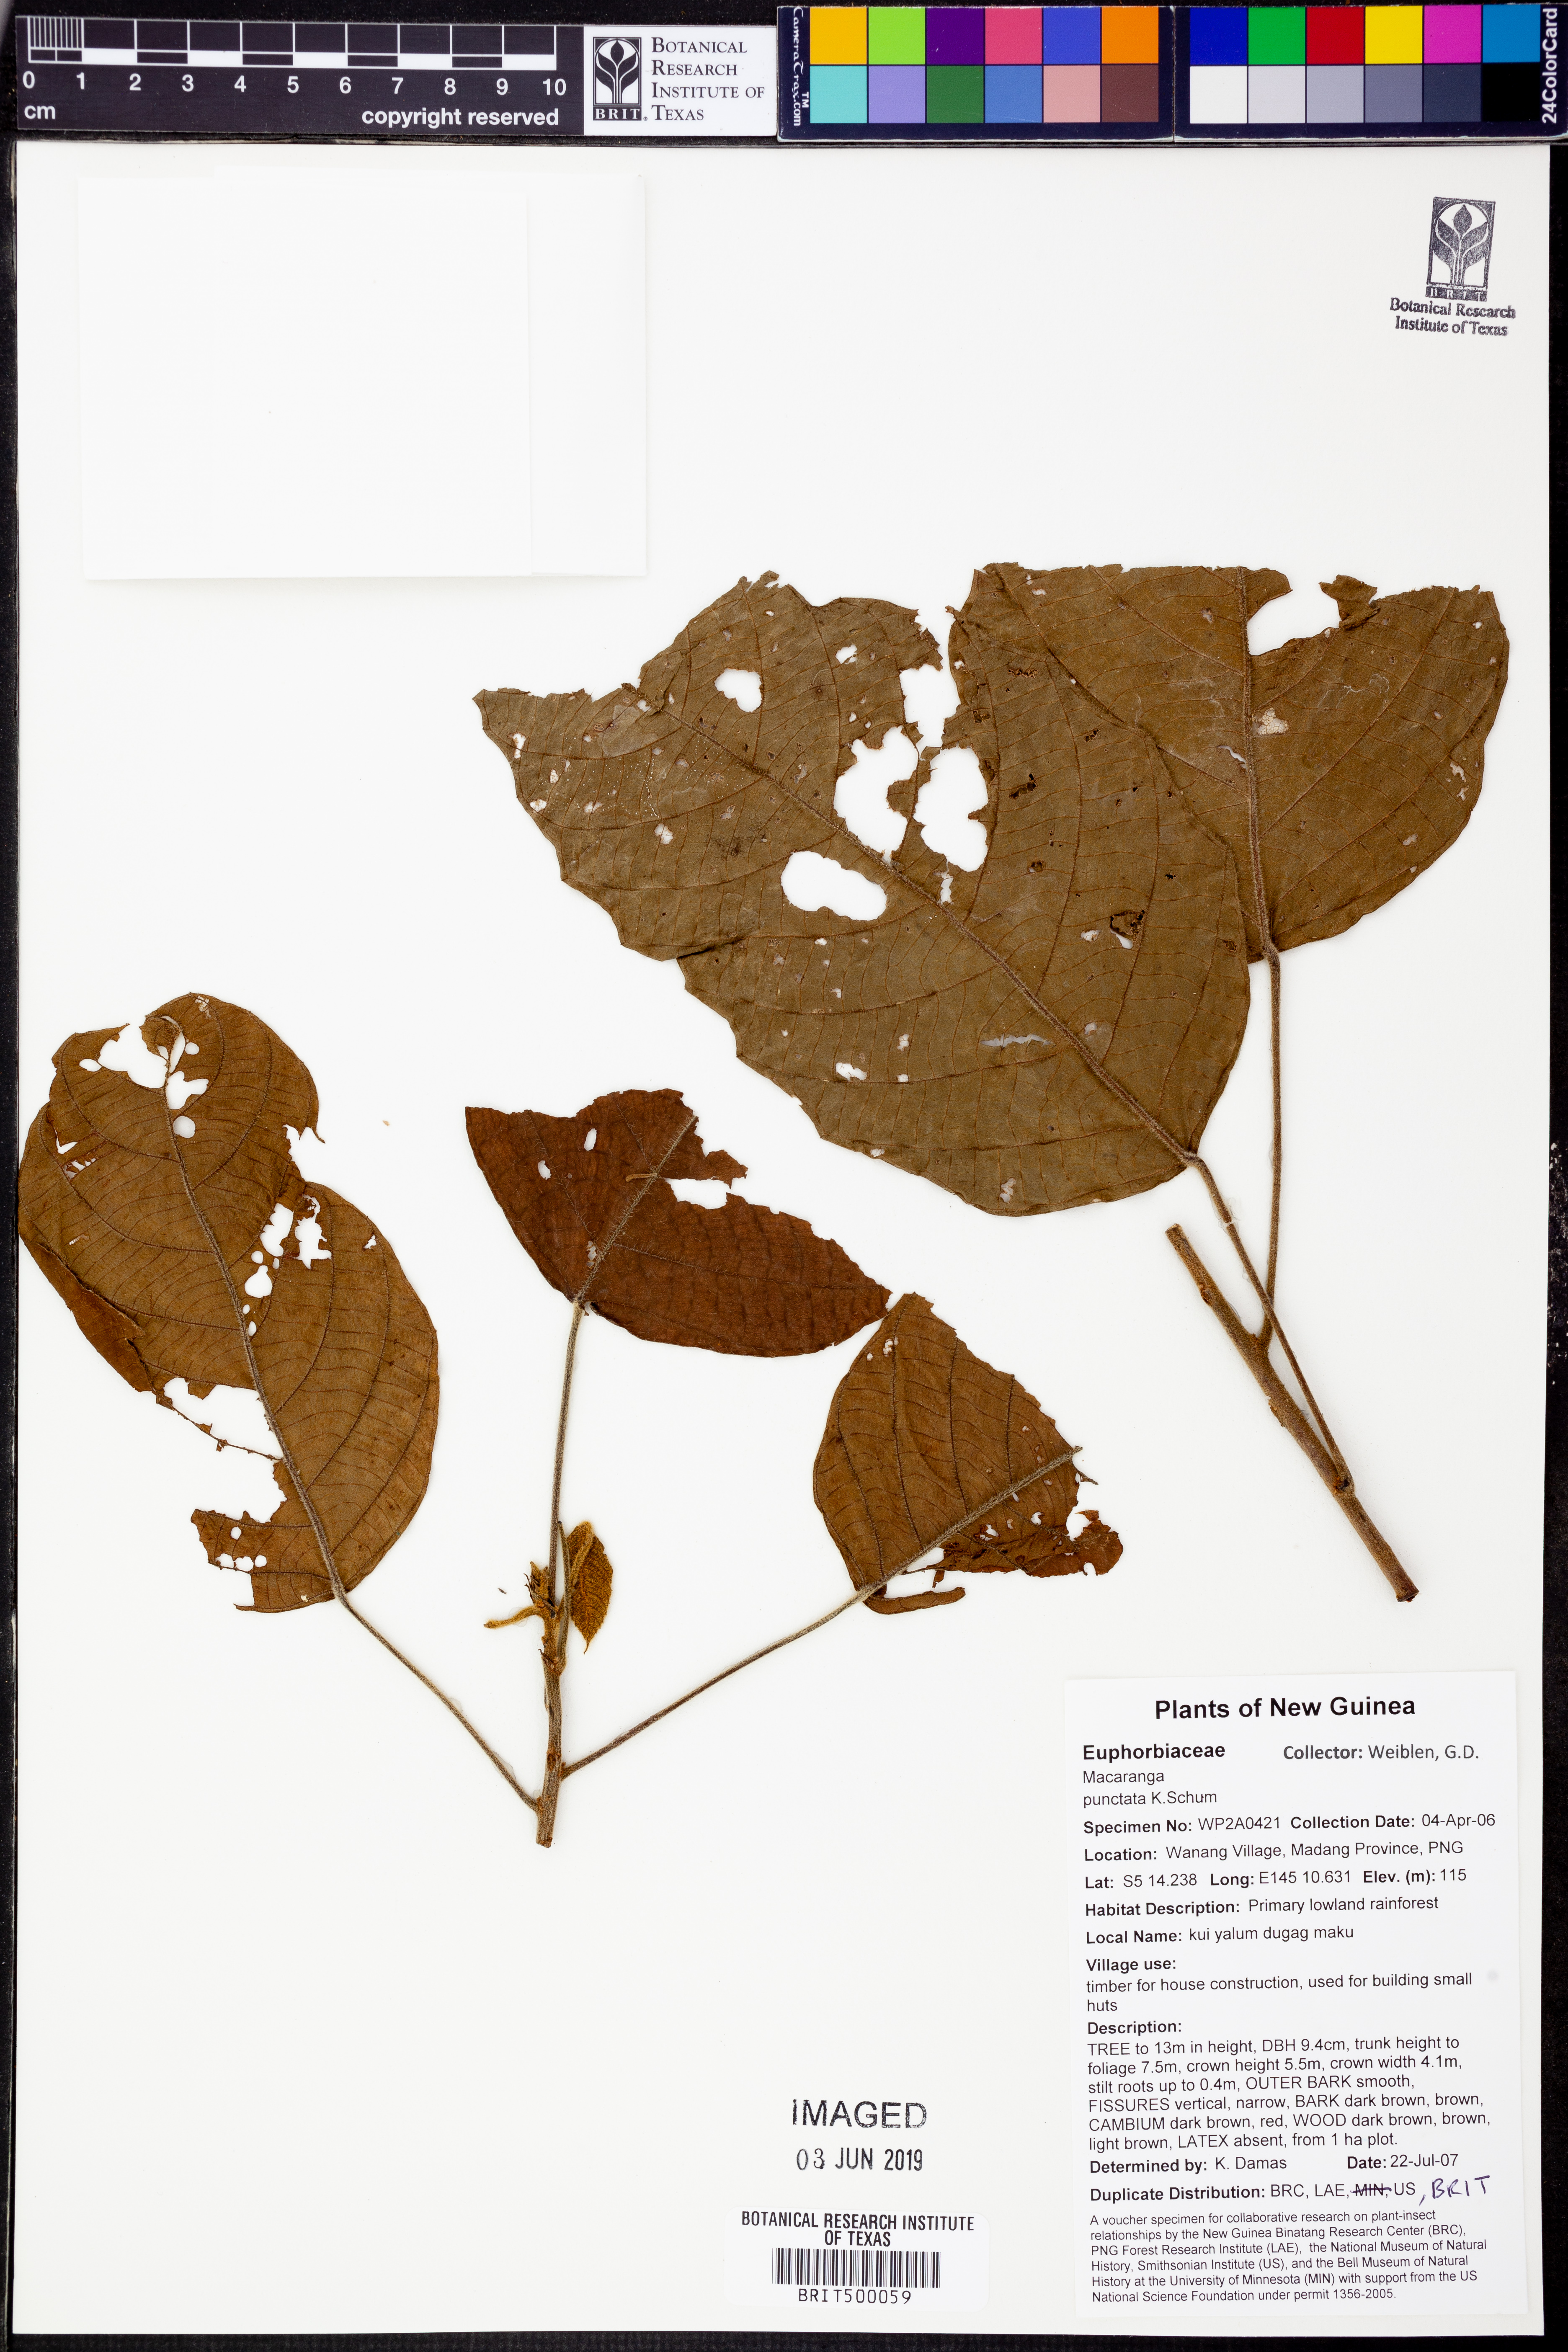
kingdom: Plantae
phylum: Tracheophyta
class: Magnoliopsida
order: Malpighiales
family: Euphorbiaceae
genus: Macaranga
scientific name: Macaranga punctata
